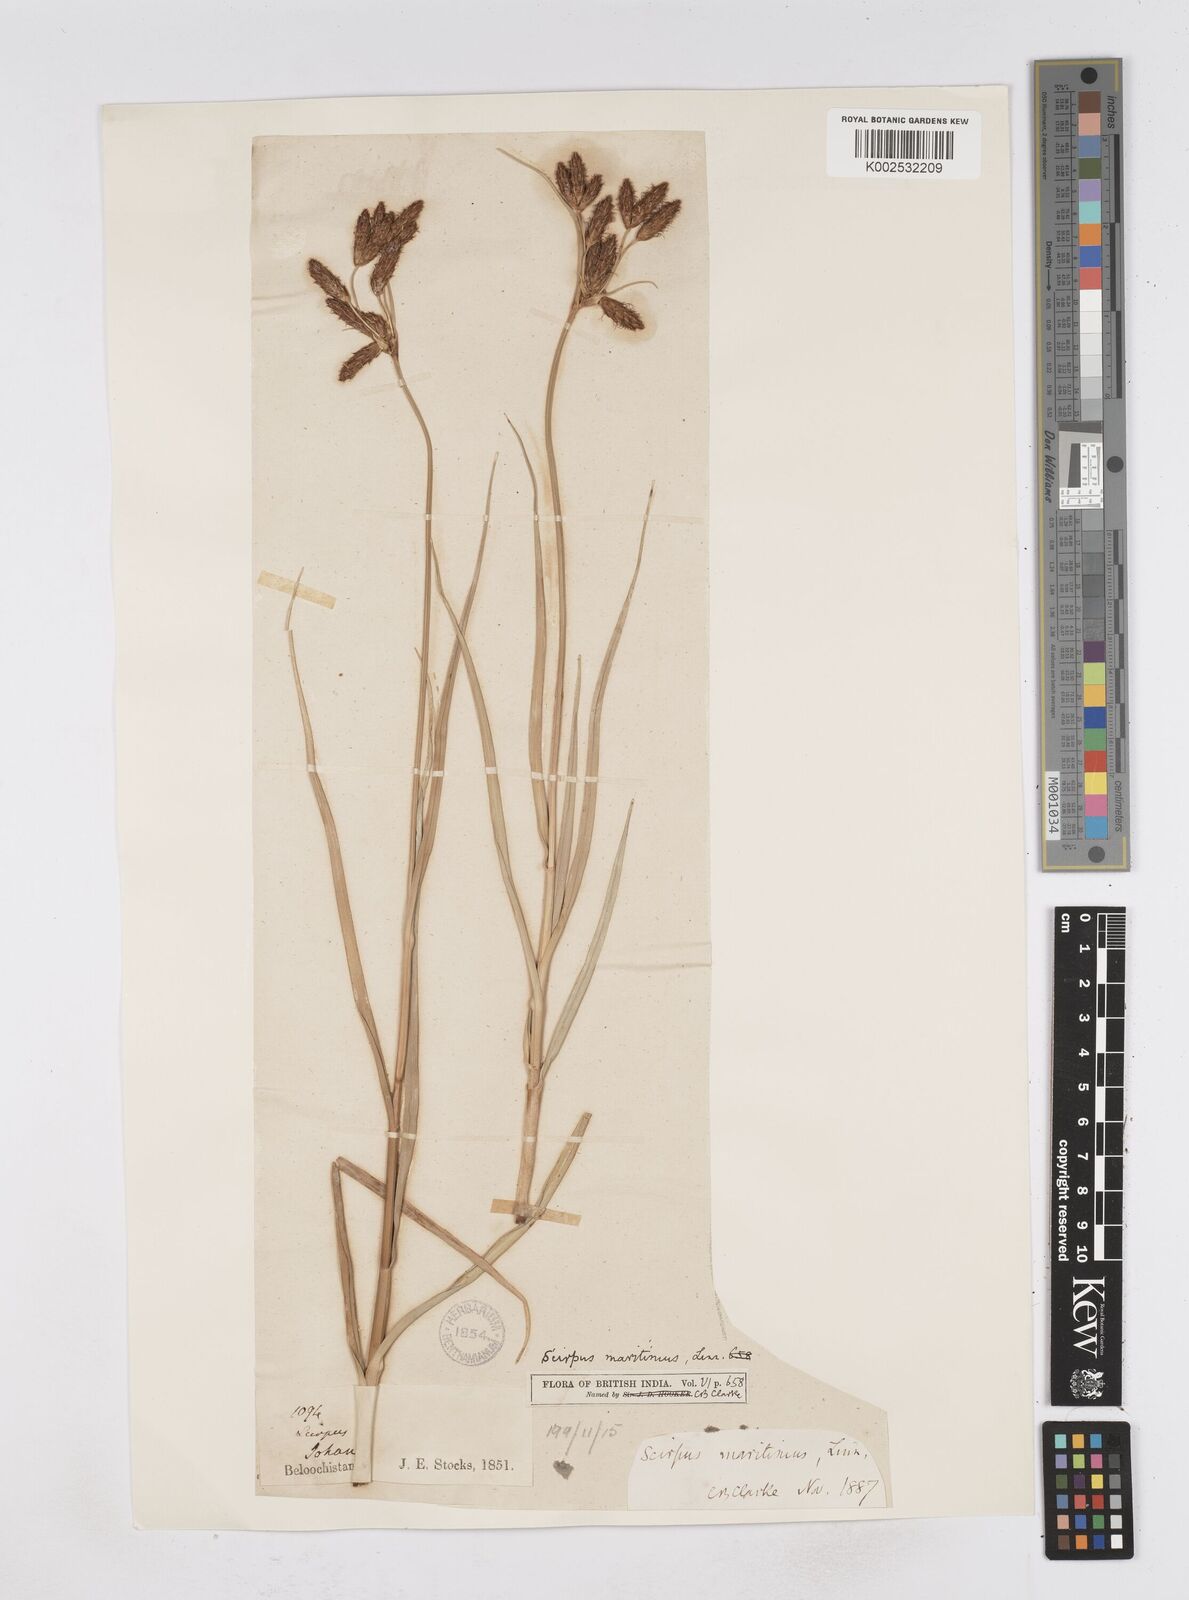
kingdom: Plantae
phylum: Tracheophyta
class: Liliopsida
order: Poales
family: Cyperaceae
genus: Bolboschoenus
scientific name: Bolboschoenus maritimus
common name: Sea club-rush
